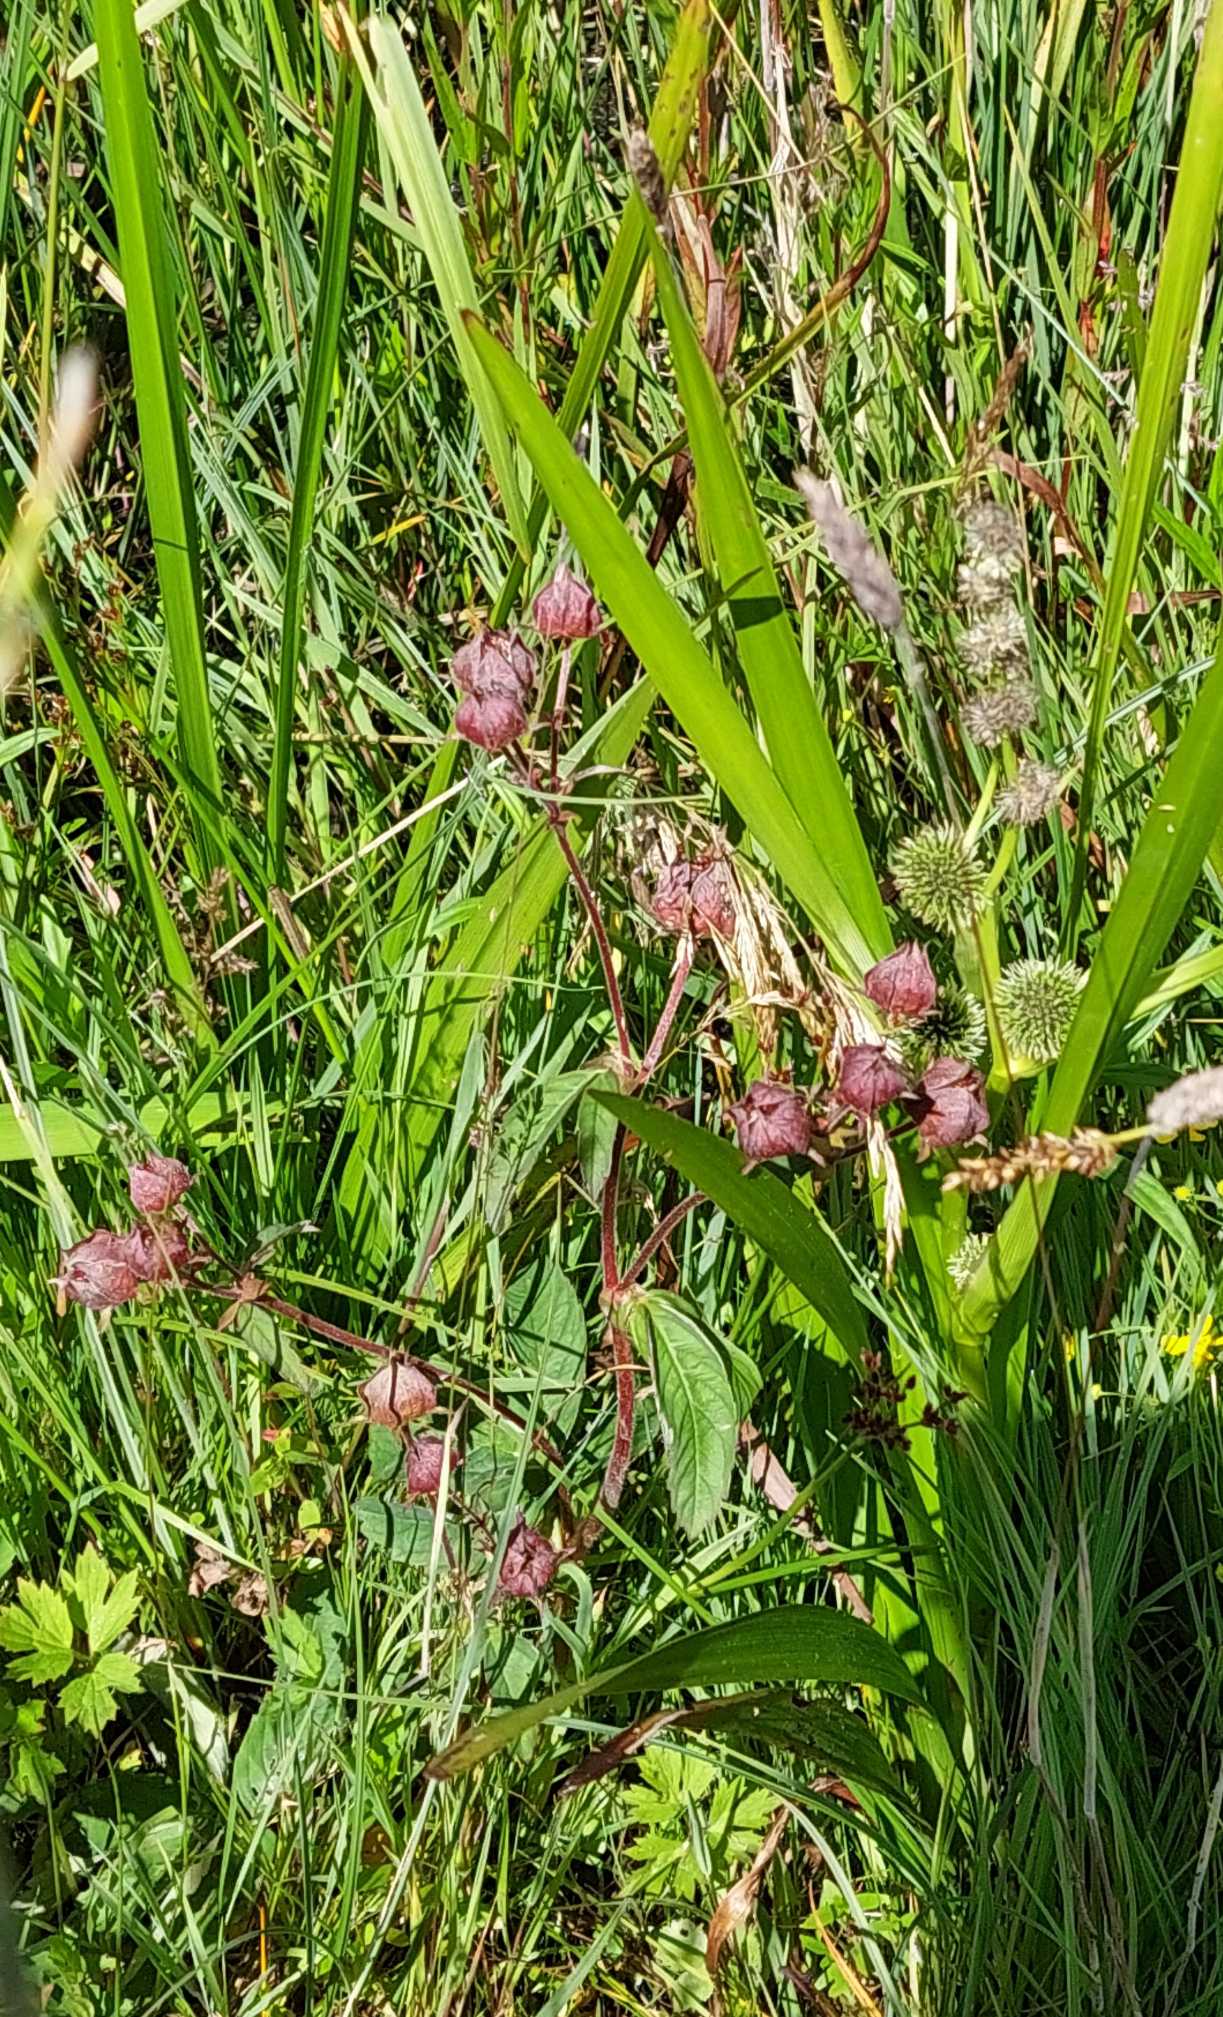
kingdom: Plantae
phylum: Tracheophyta
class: Magnoliopsida
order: Rosales
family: Rosaceae
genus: Comarum
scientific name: Comarum palustre
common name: Kragefod
